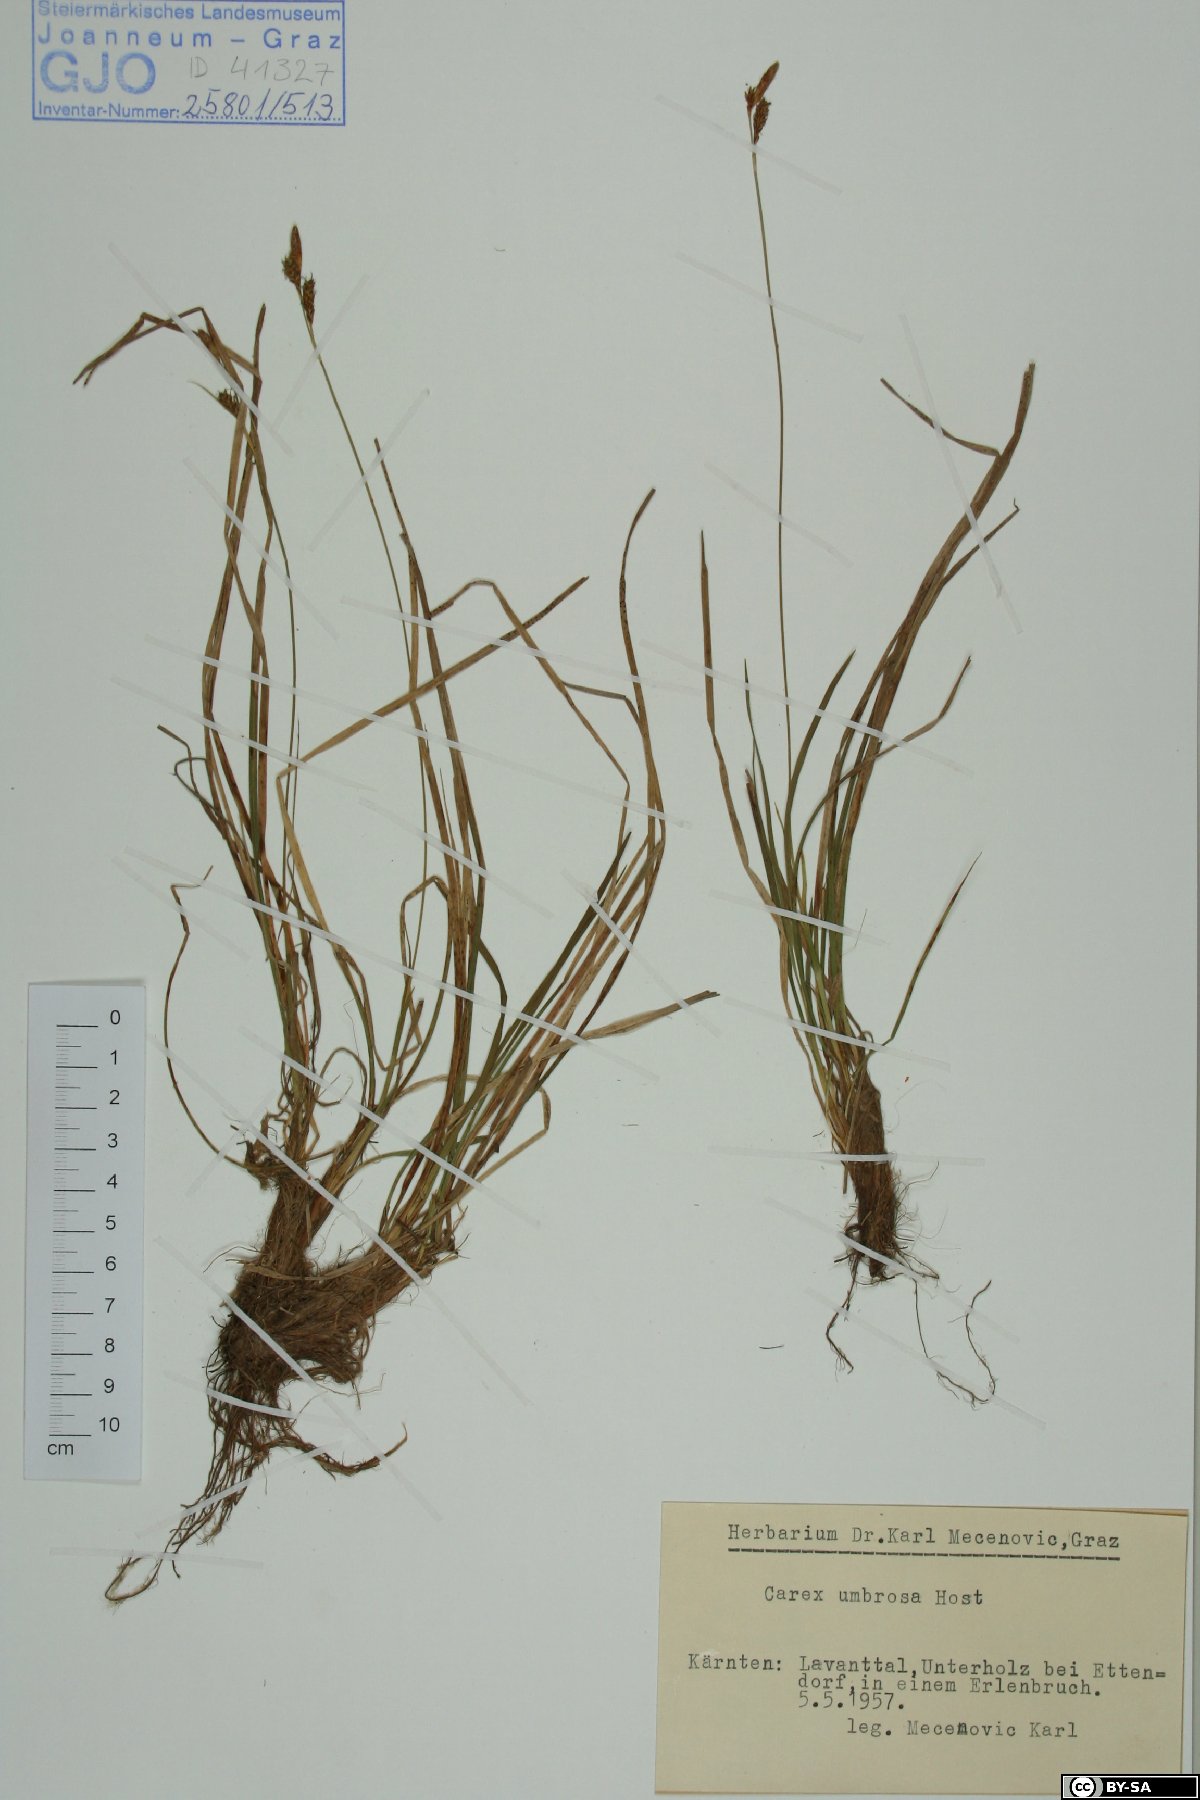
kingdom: Plantae
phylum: Tracheophyta
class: Liliopsida
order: Poales
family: Cyperaceae
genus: Carex
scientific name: Carex umbrosa
